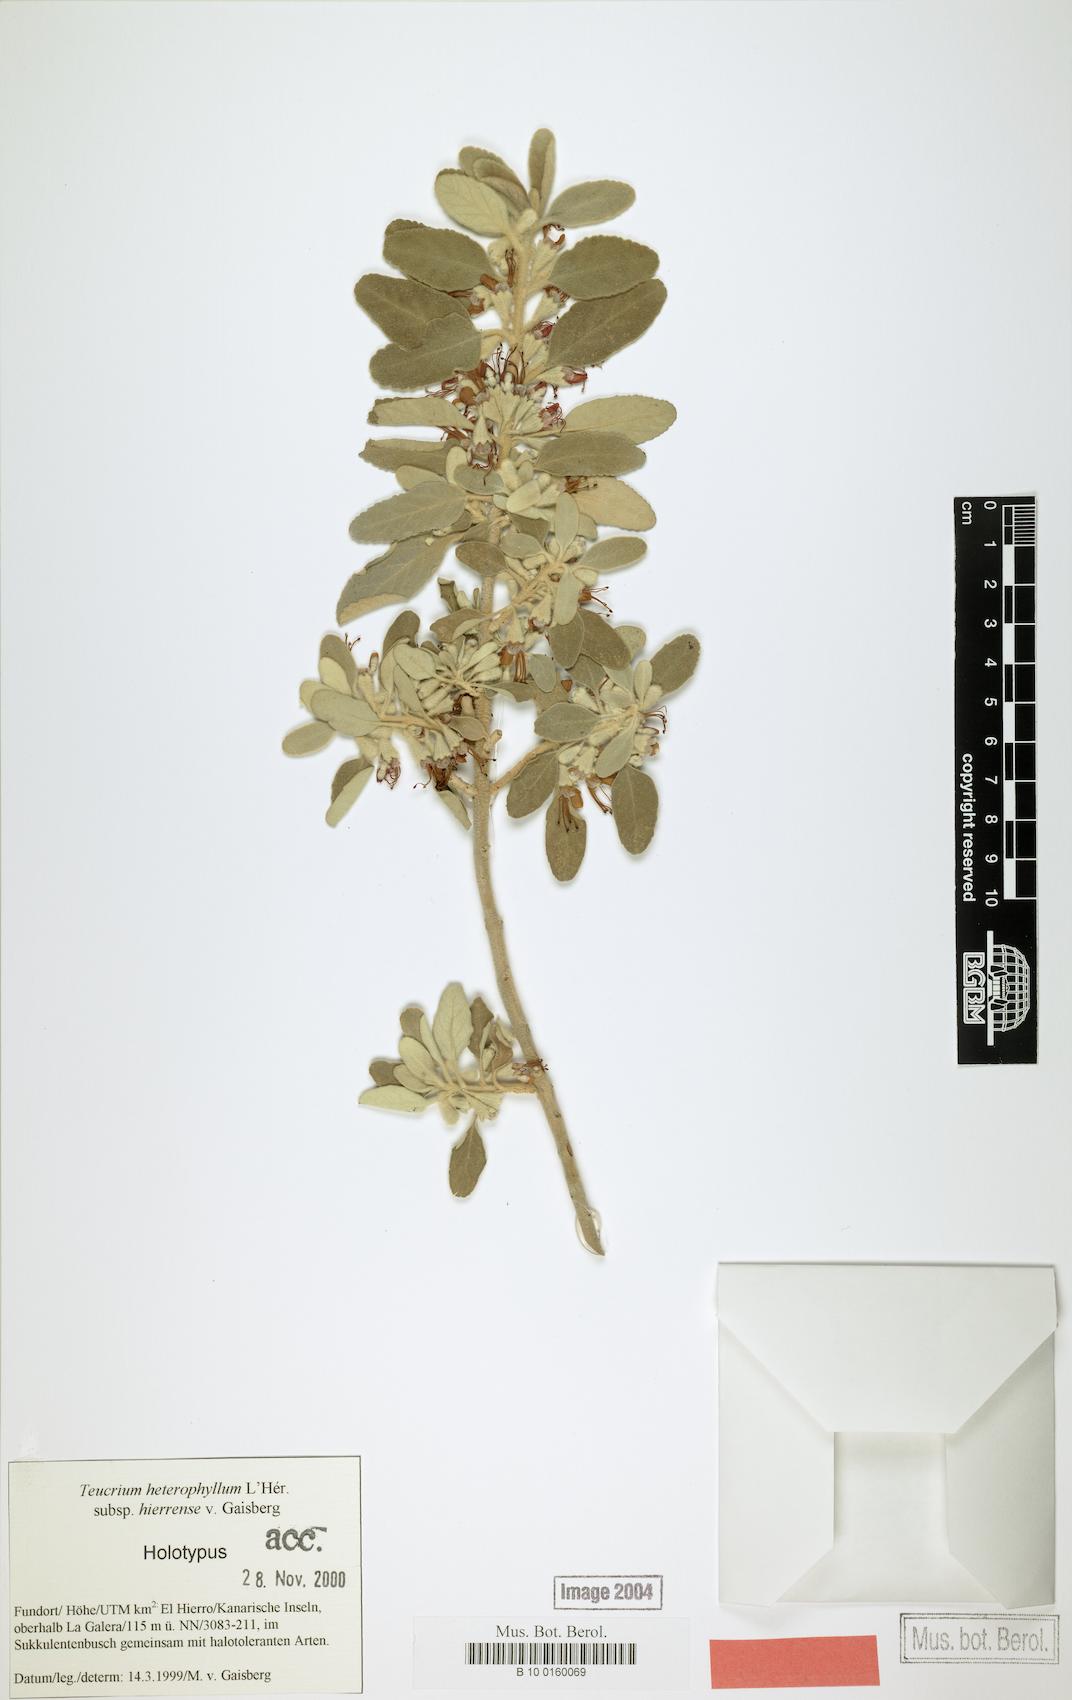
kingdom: Plantae
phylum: Tracheophyta
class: Magnoliopsida
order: Lamiales
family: Lamiaceae
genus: Teucrium
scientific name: Teucrium heterophyllum
